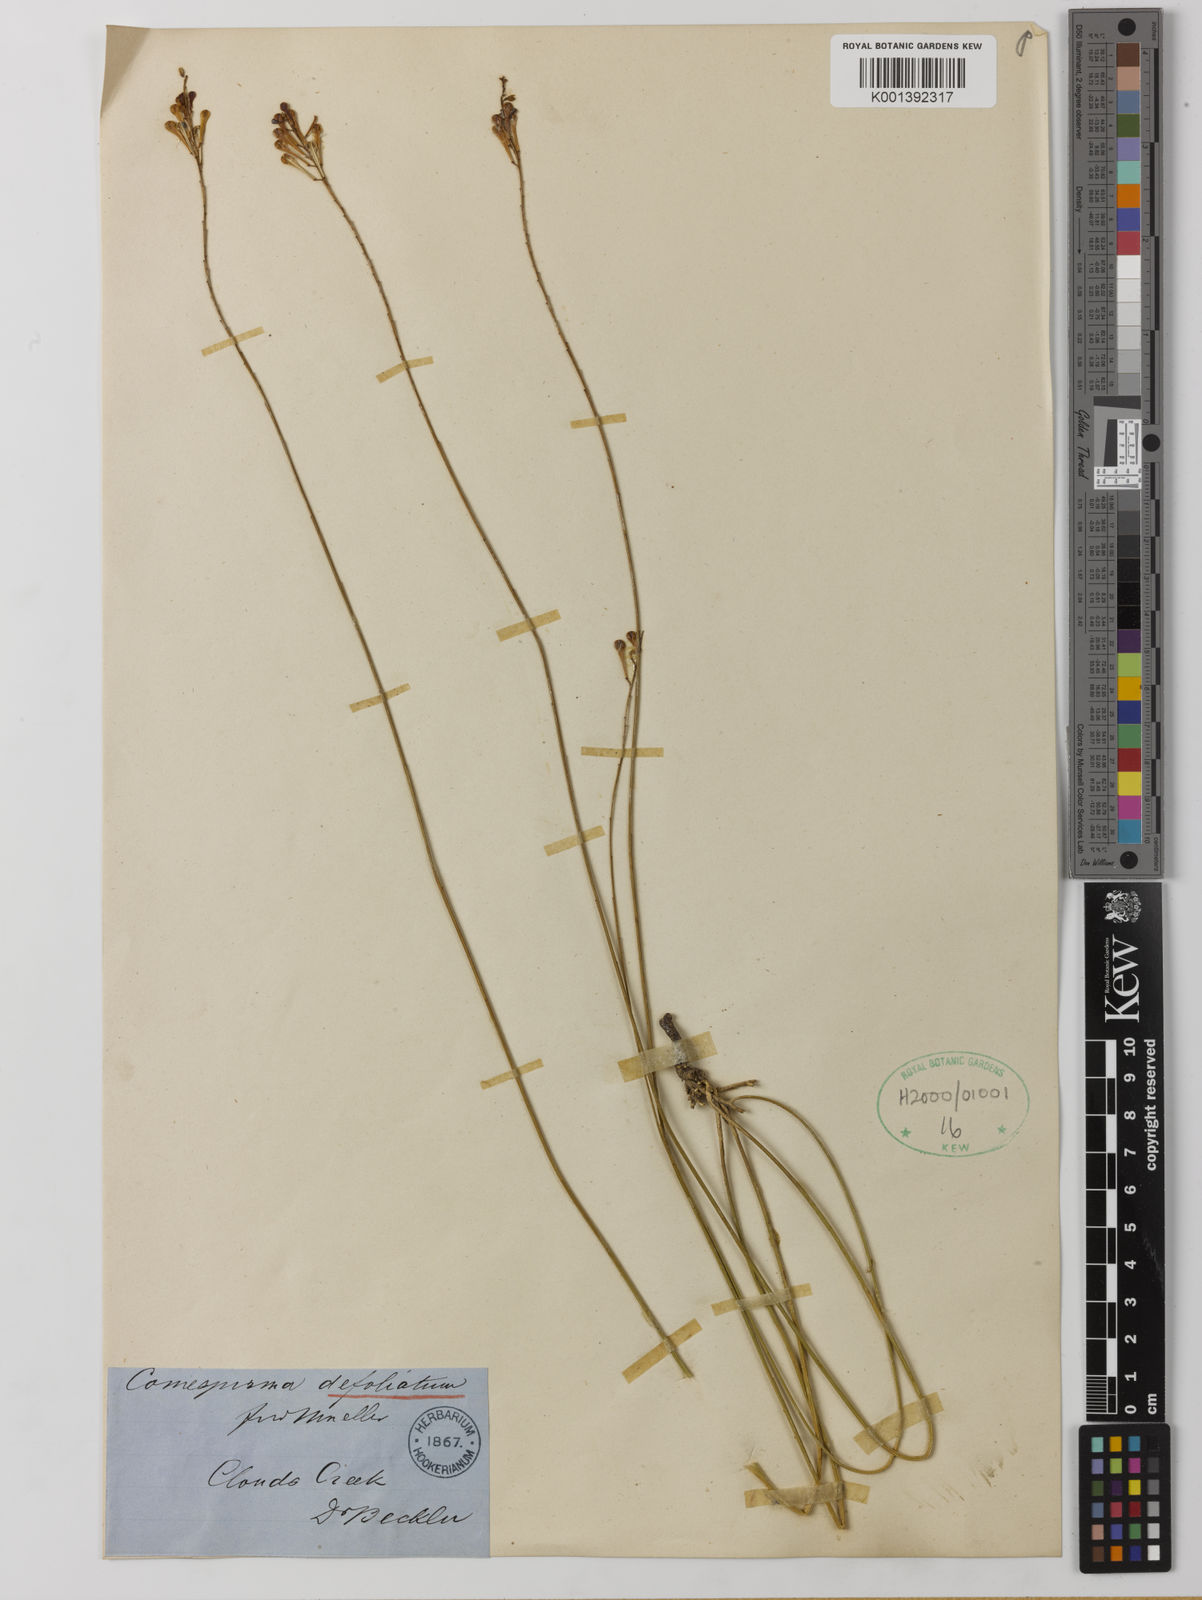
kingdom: Plantae
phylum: Tracheophyta
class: Magnoliopsida
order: Fabales
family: Polygalaceae
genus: Comesperma
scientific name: Comesperma defoliatum
